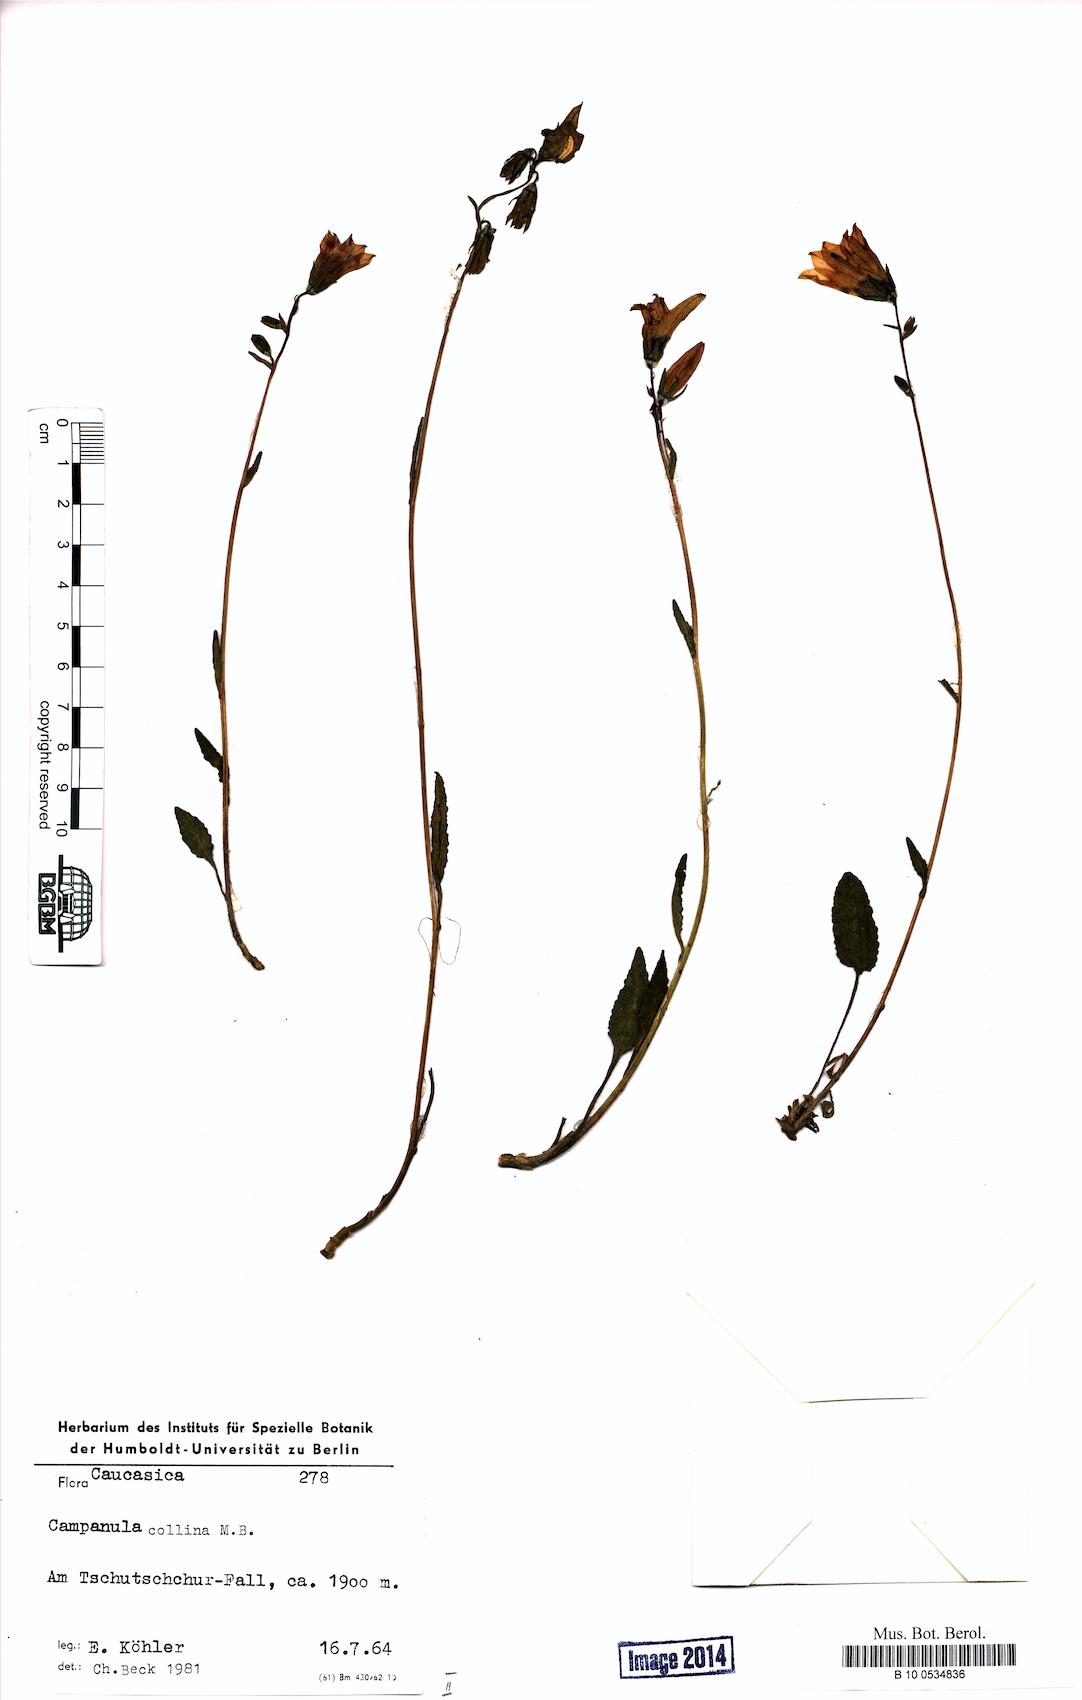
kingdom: Plantae
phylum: Tracheophyta
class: Magnoliopsida
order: Asterales
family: Campanulaceae
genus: Campanula
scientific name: Campanula collina
